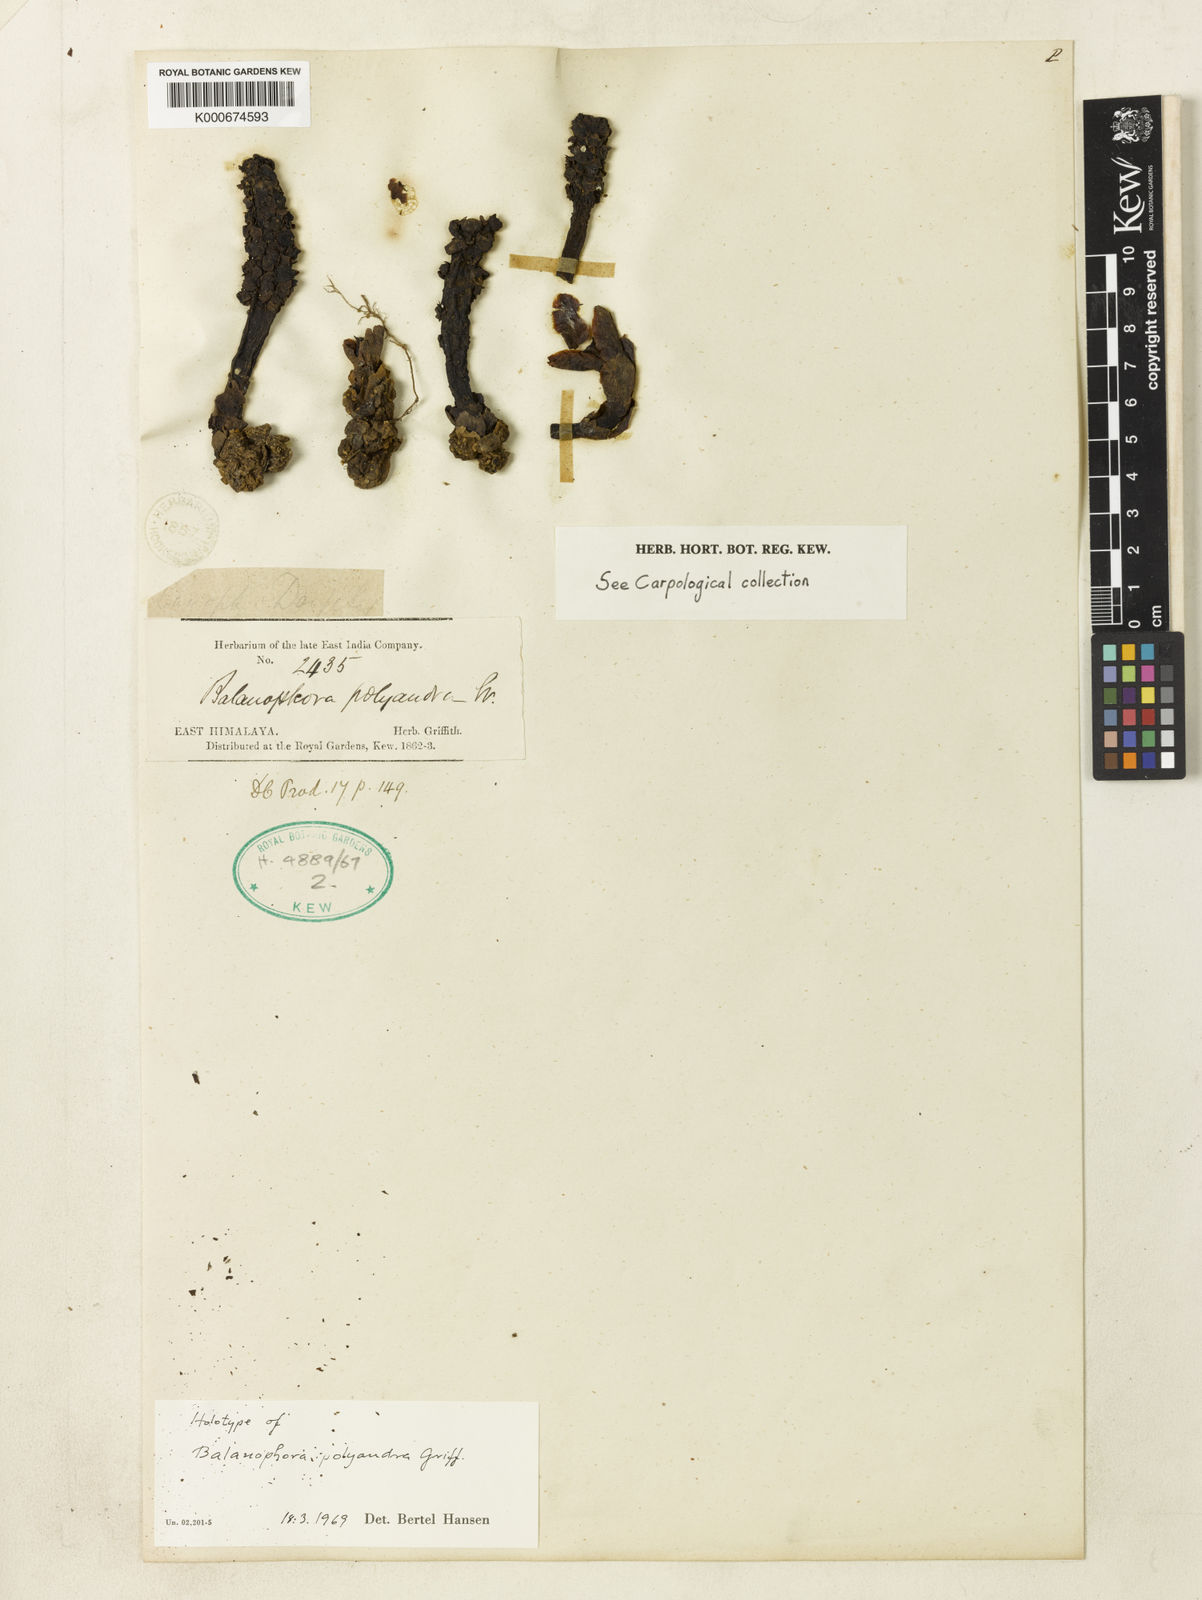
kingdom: Plantae
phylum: Tracheophyta
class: Magnoliopsida
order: Santalales
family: Balanophoraceae
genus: Balanophora
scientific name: Balanophora polyandra
